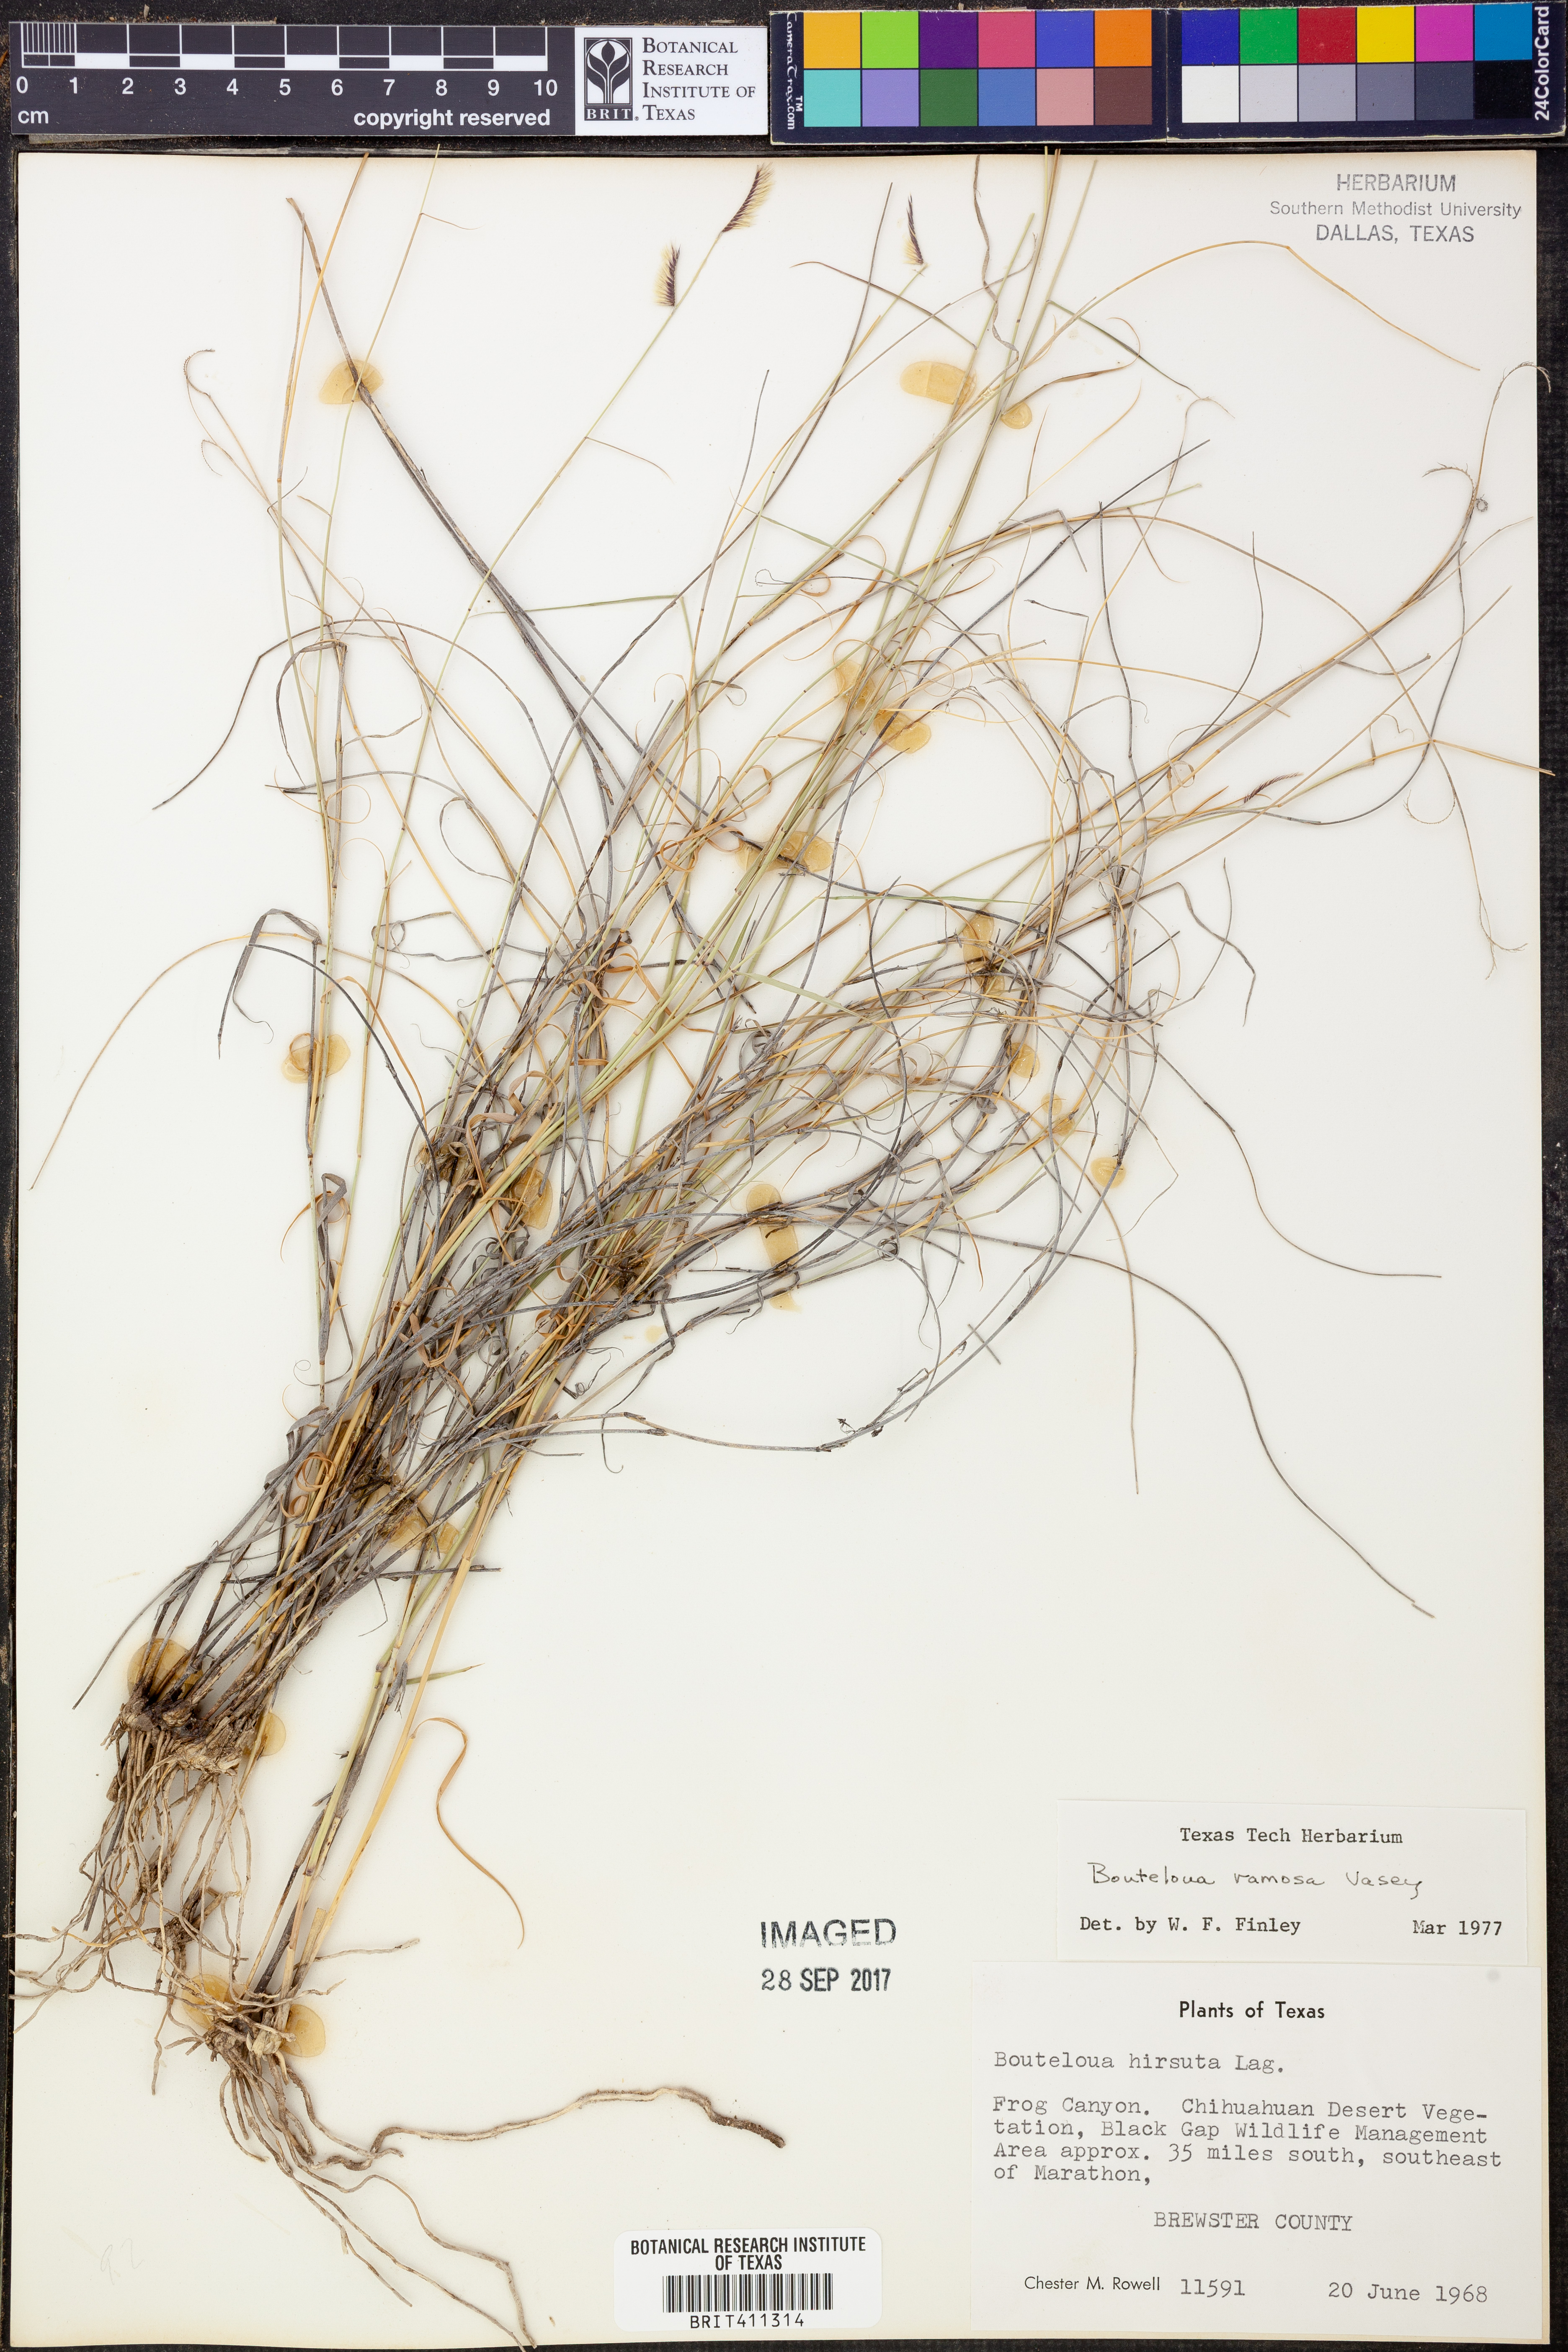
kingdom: Plantae
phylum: Tracheophyta
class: Liliopsida
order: Poales
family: Poaceae
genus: Bouteloua
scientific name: Bouteloua ramosa
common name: Chino grama
